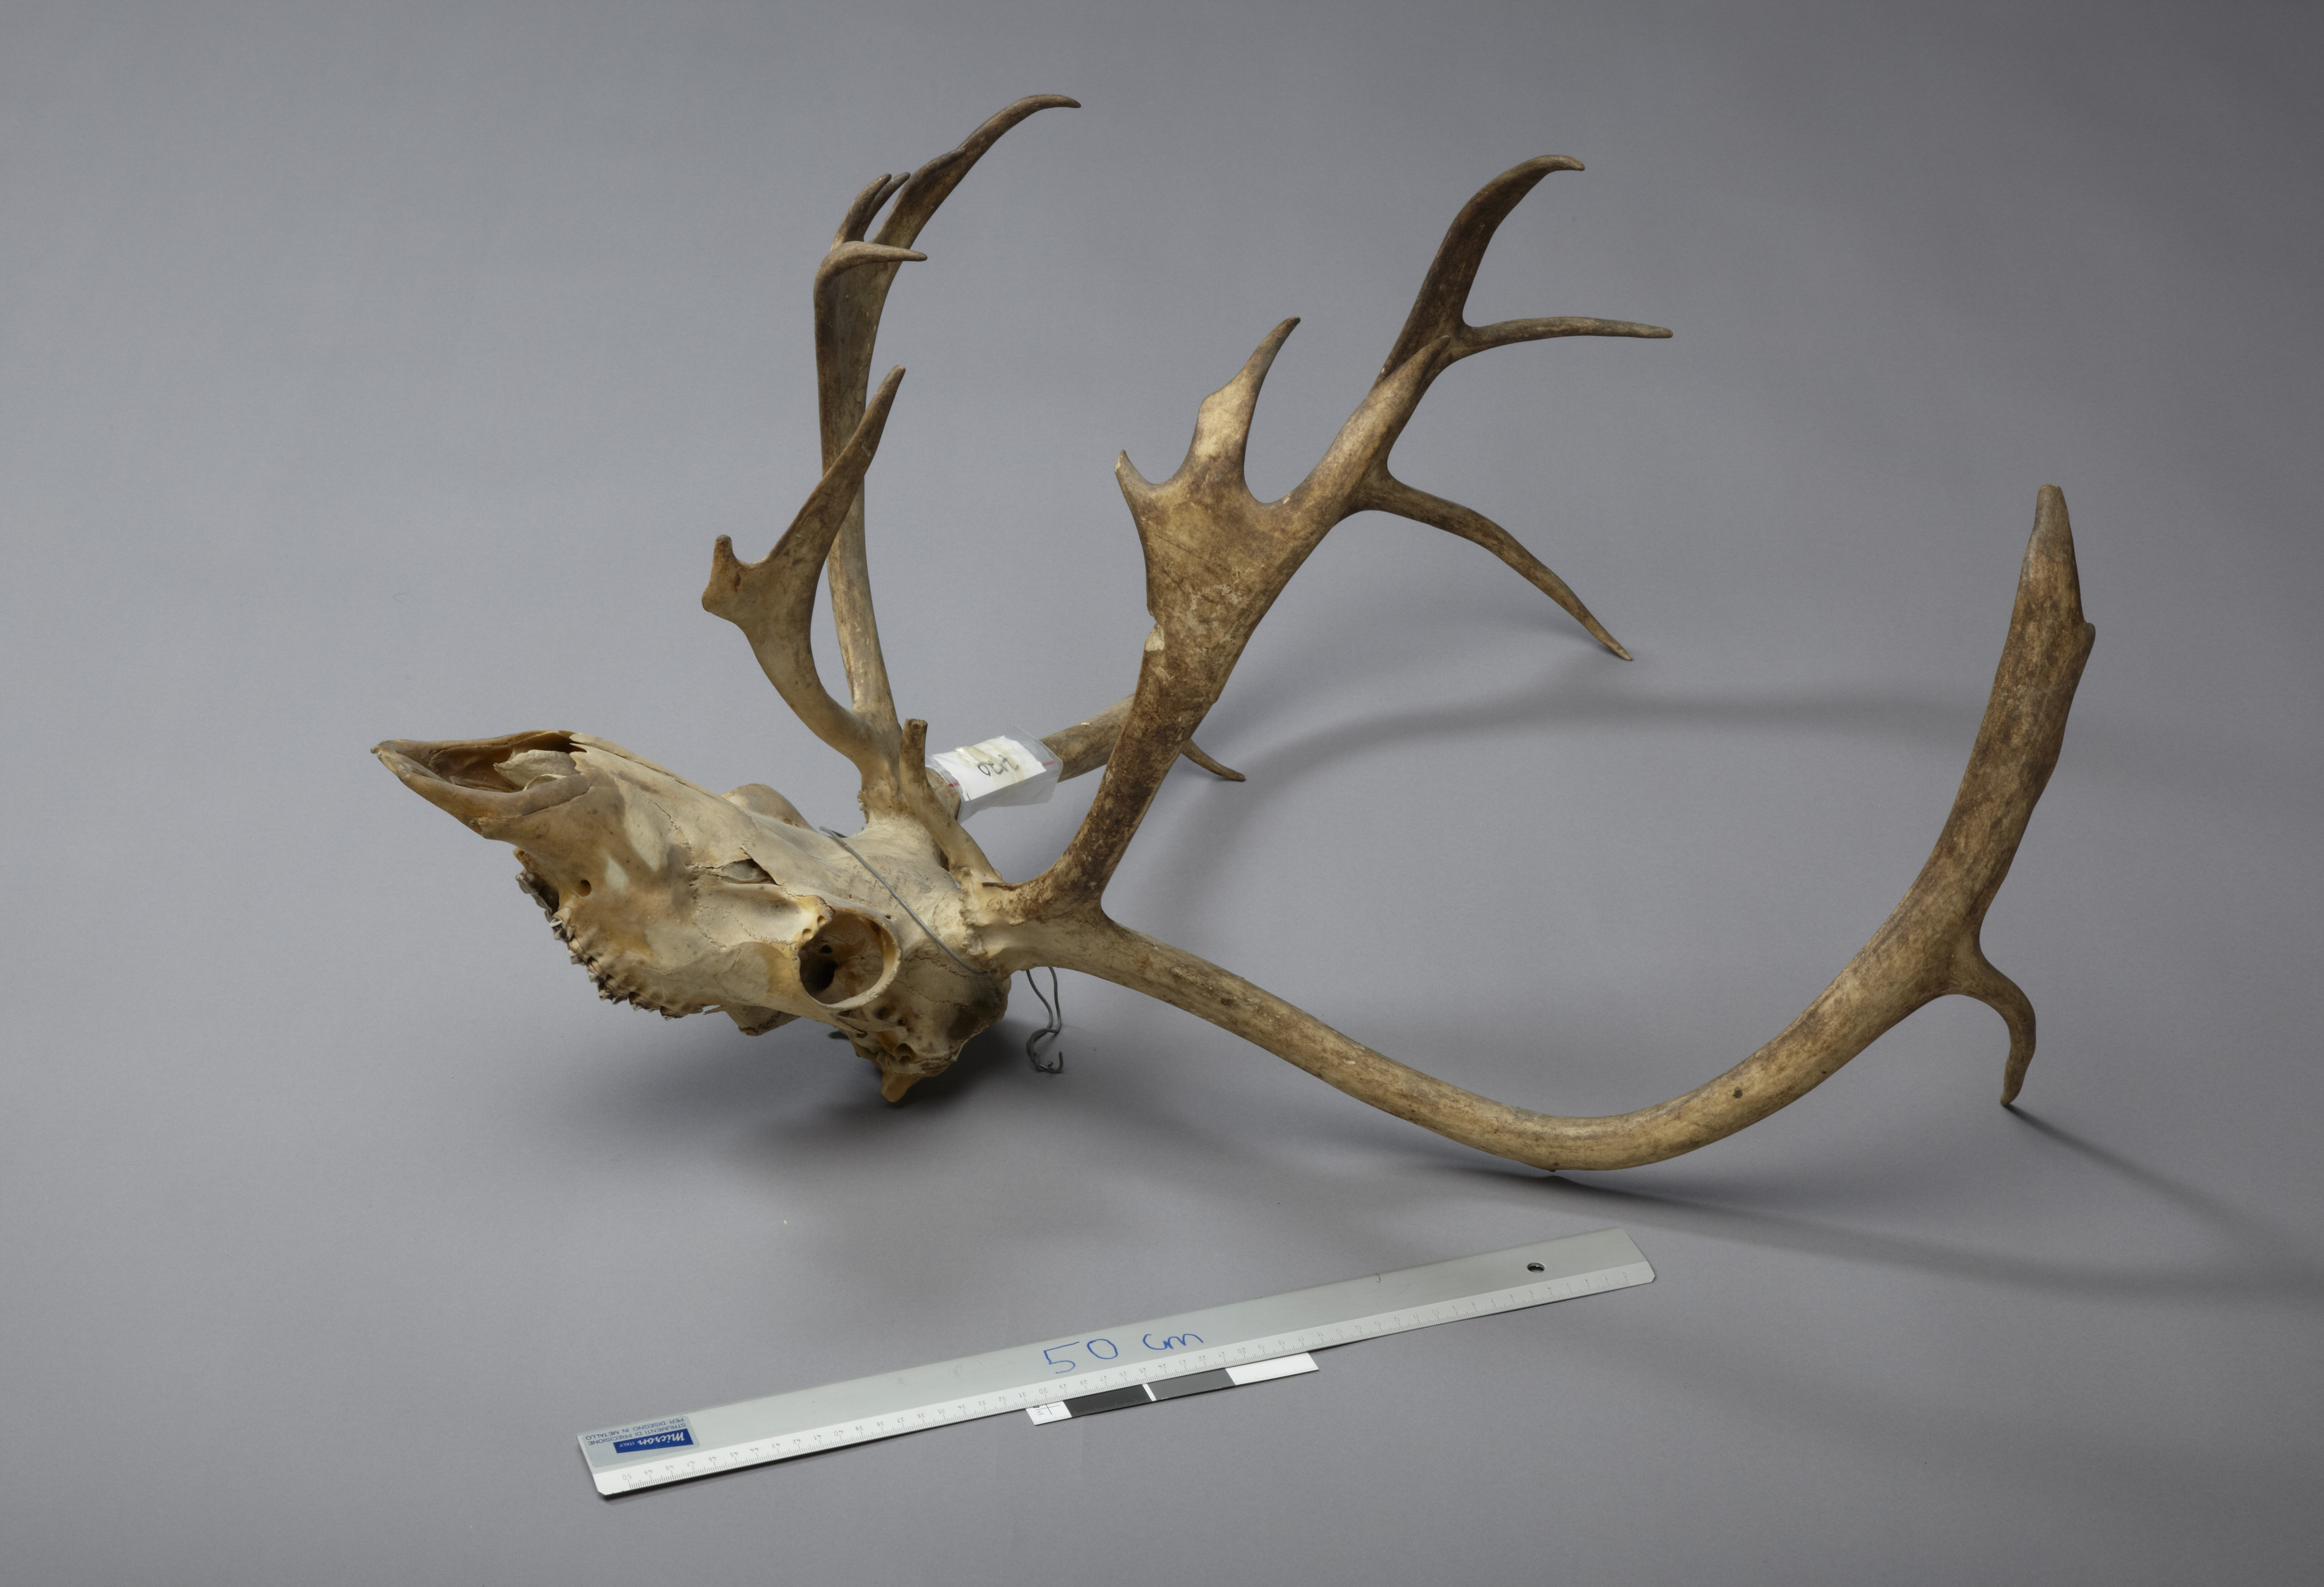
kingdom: Animalia
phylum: Chordata
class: Mammalia
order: Artiodactyla
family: Cervidae
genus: Rangifer
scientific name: Rangifer tarandus
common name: Reindeer
